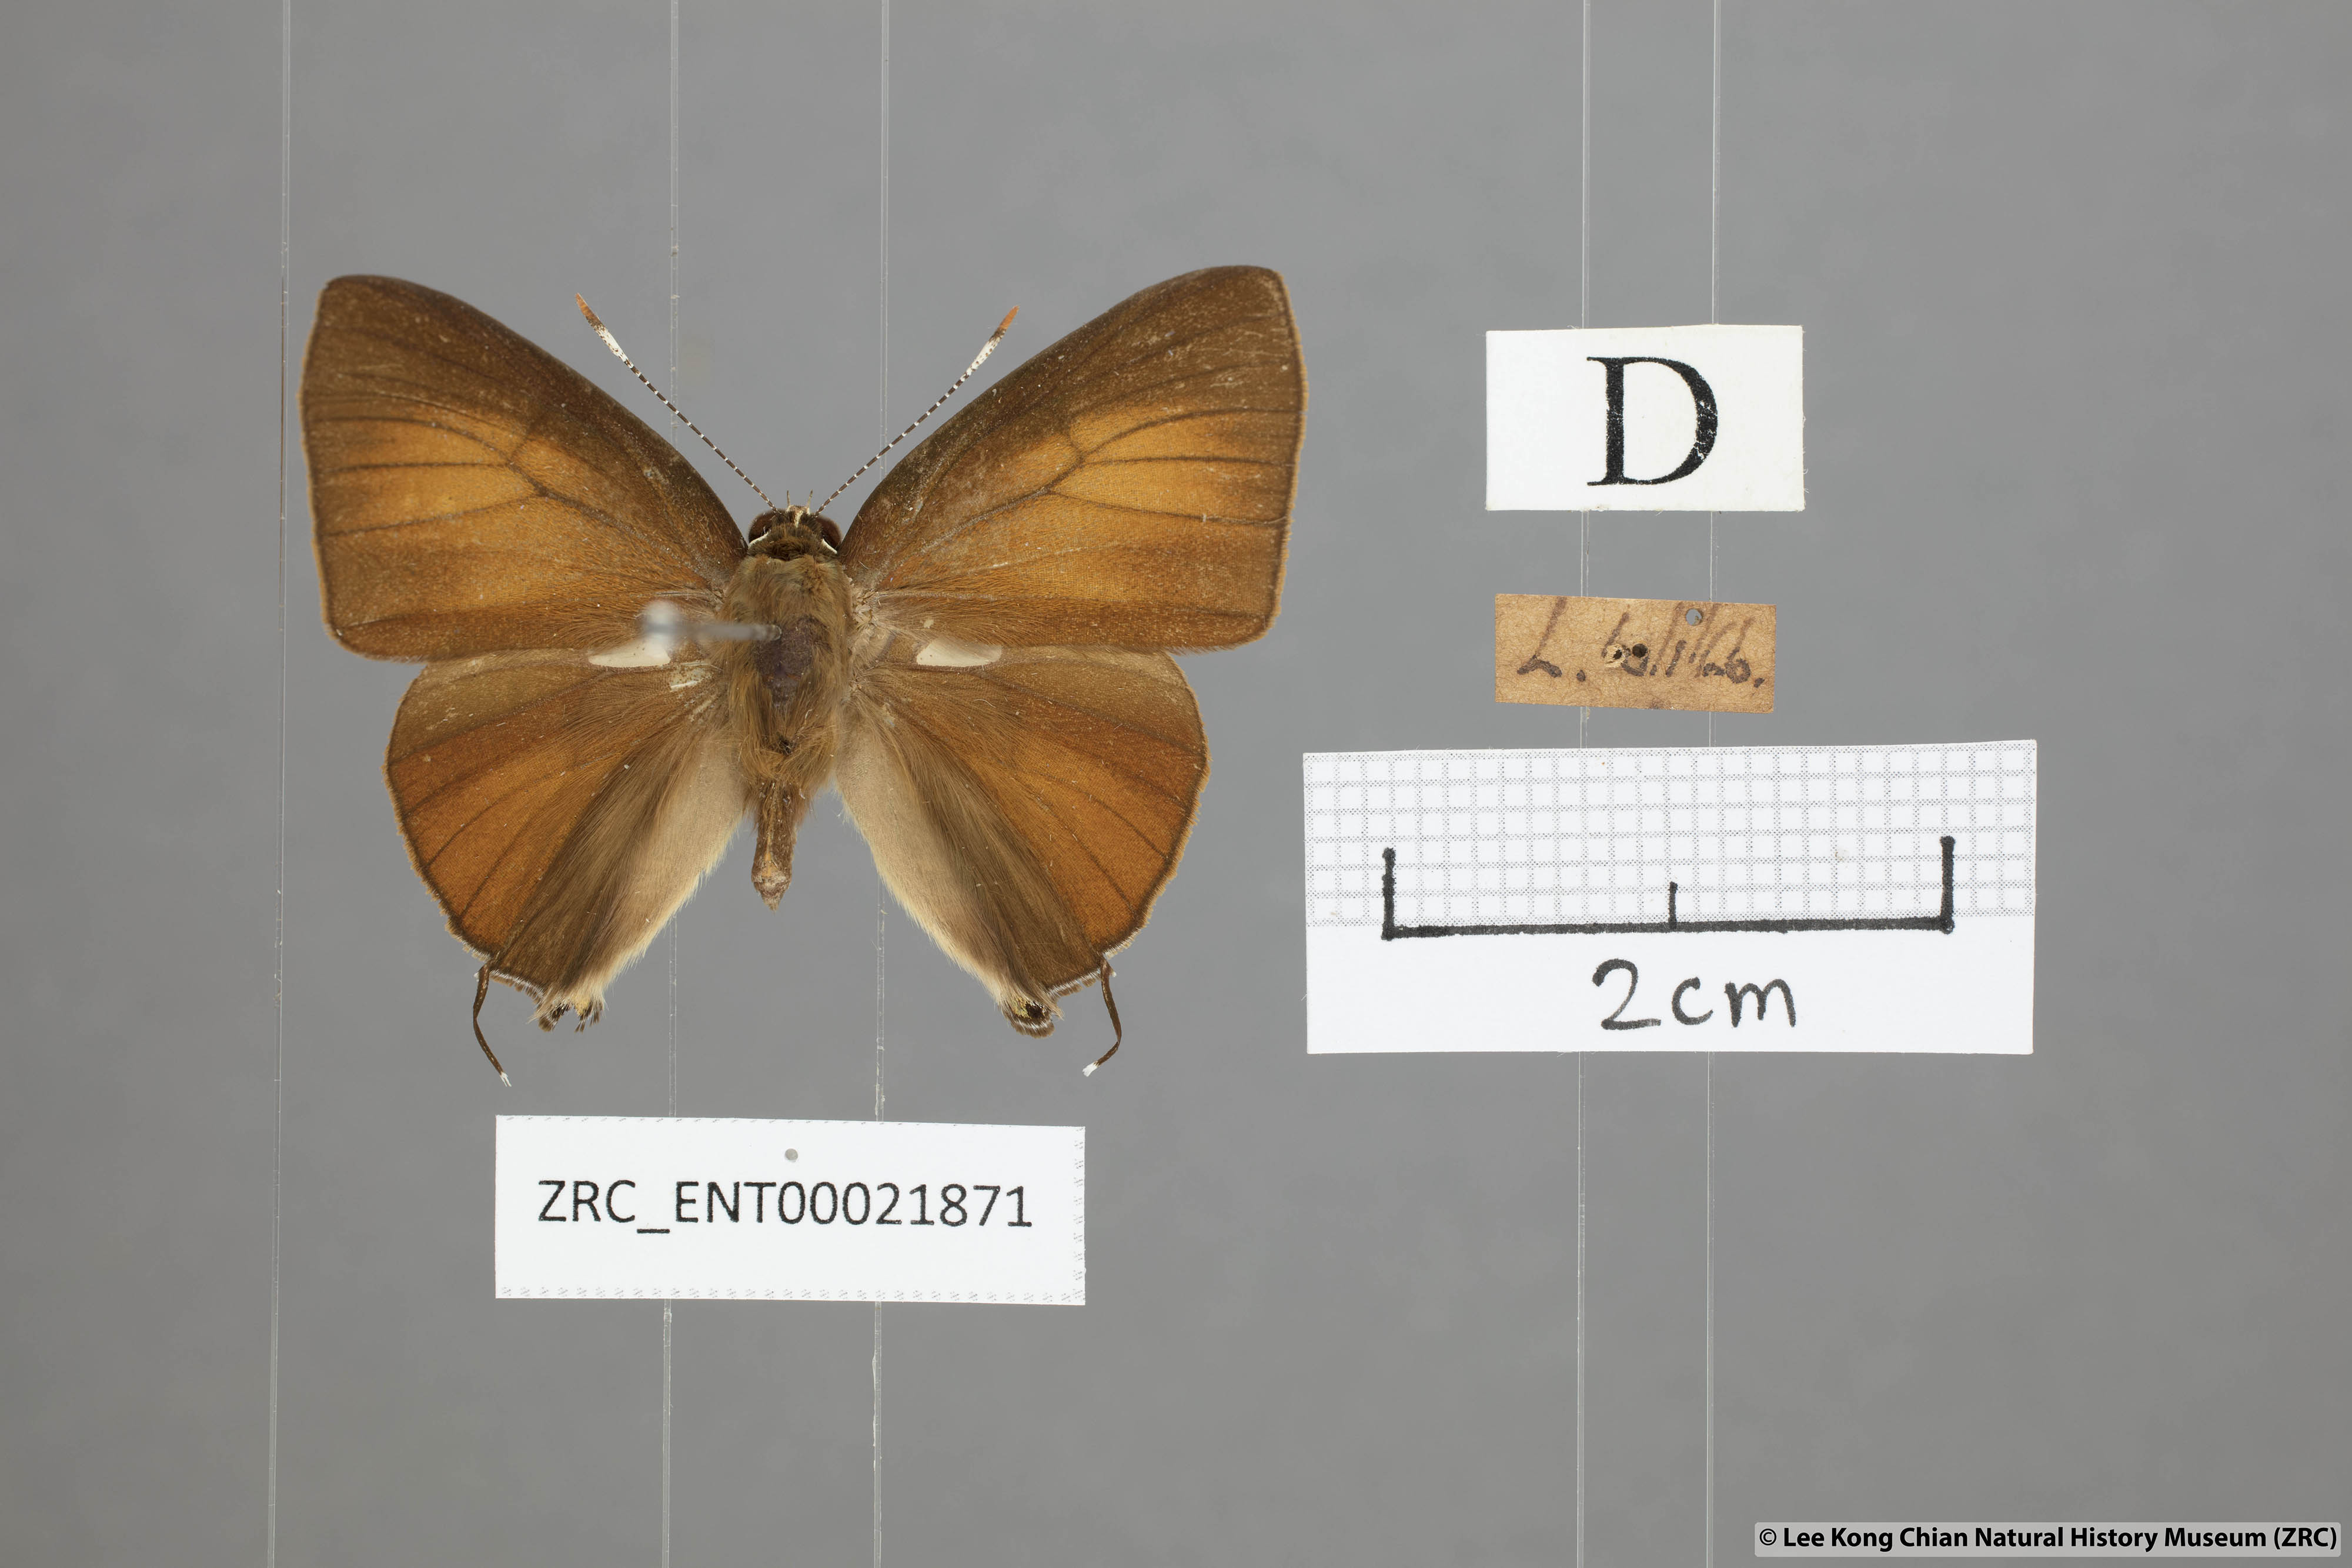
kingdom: Animalia
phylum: Arthropoda
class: Insecta
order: Lepidoptera
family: Lycaenidae
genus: Rapala
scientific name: Rapala pheretima
